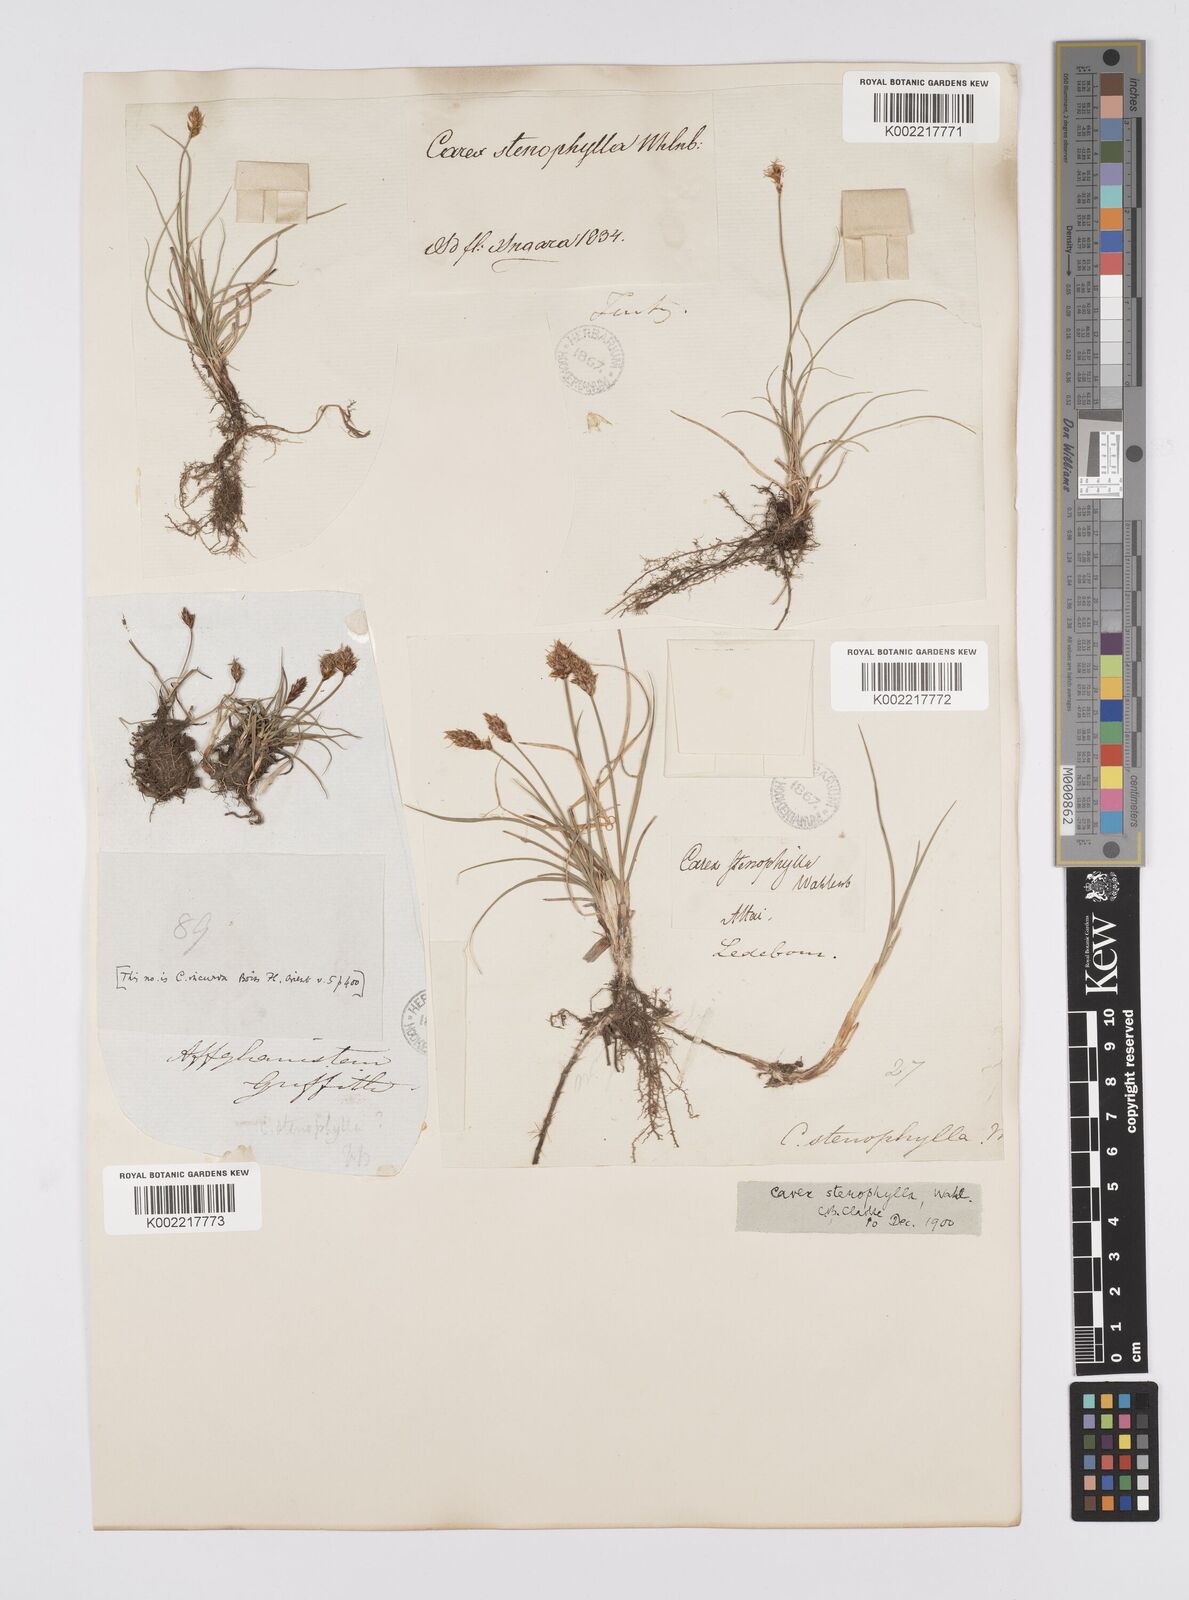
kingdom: Plantae
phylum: Tracheophyta
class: Liliopsida
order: Poales
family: Cyperaceae
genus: Carex
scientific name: Carex stenophylla
